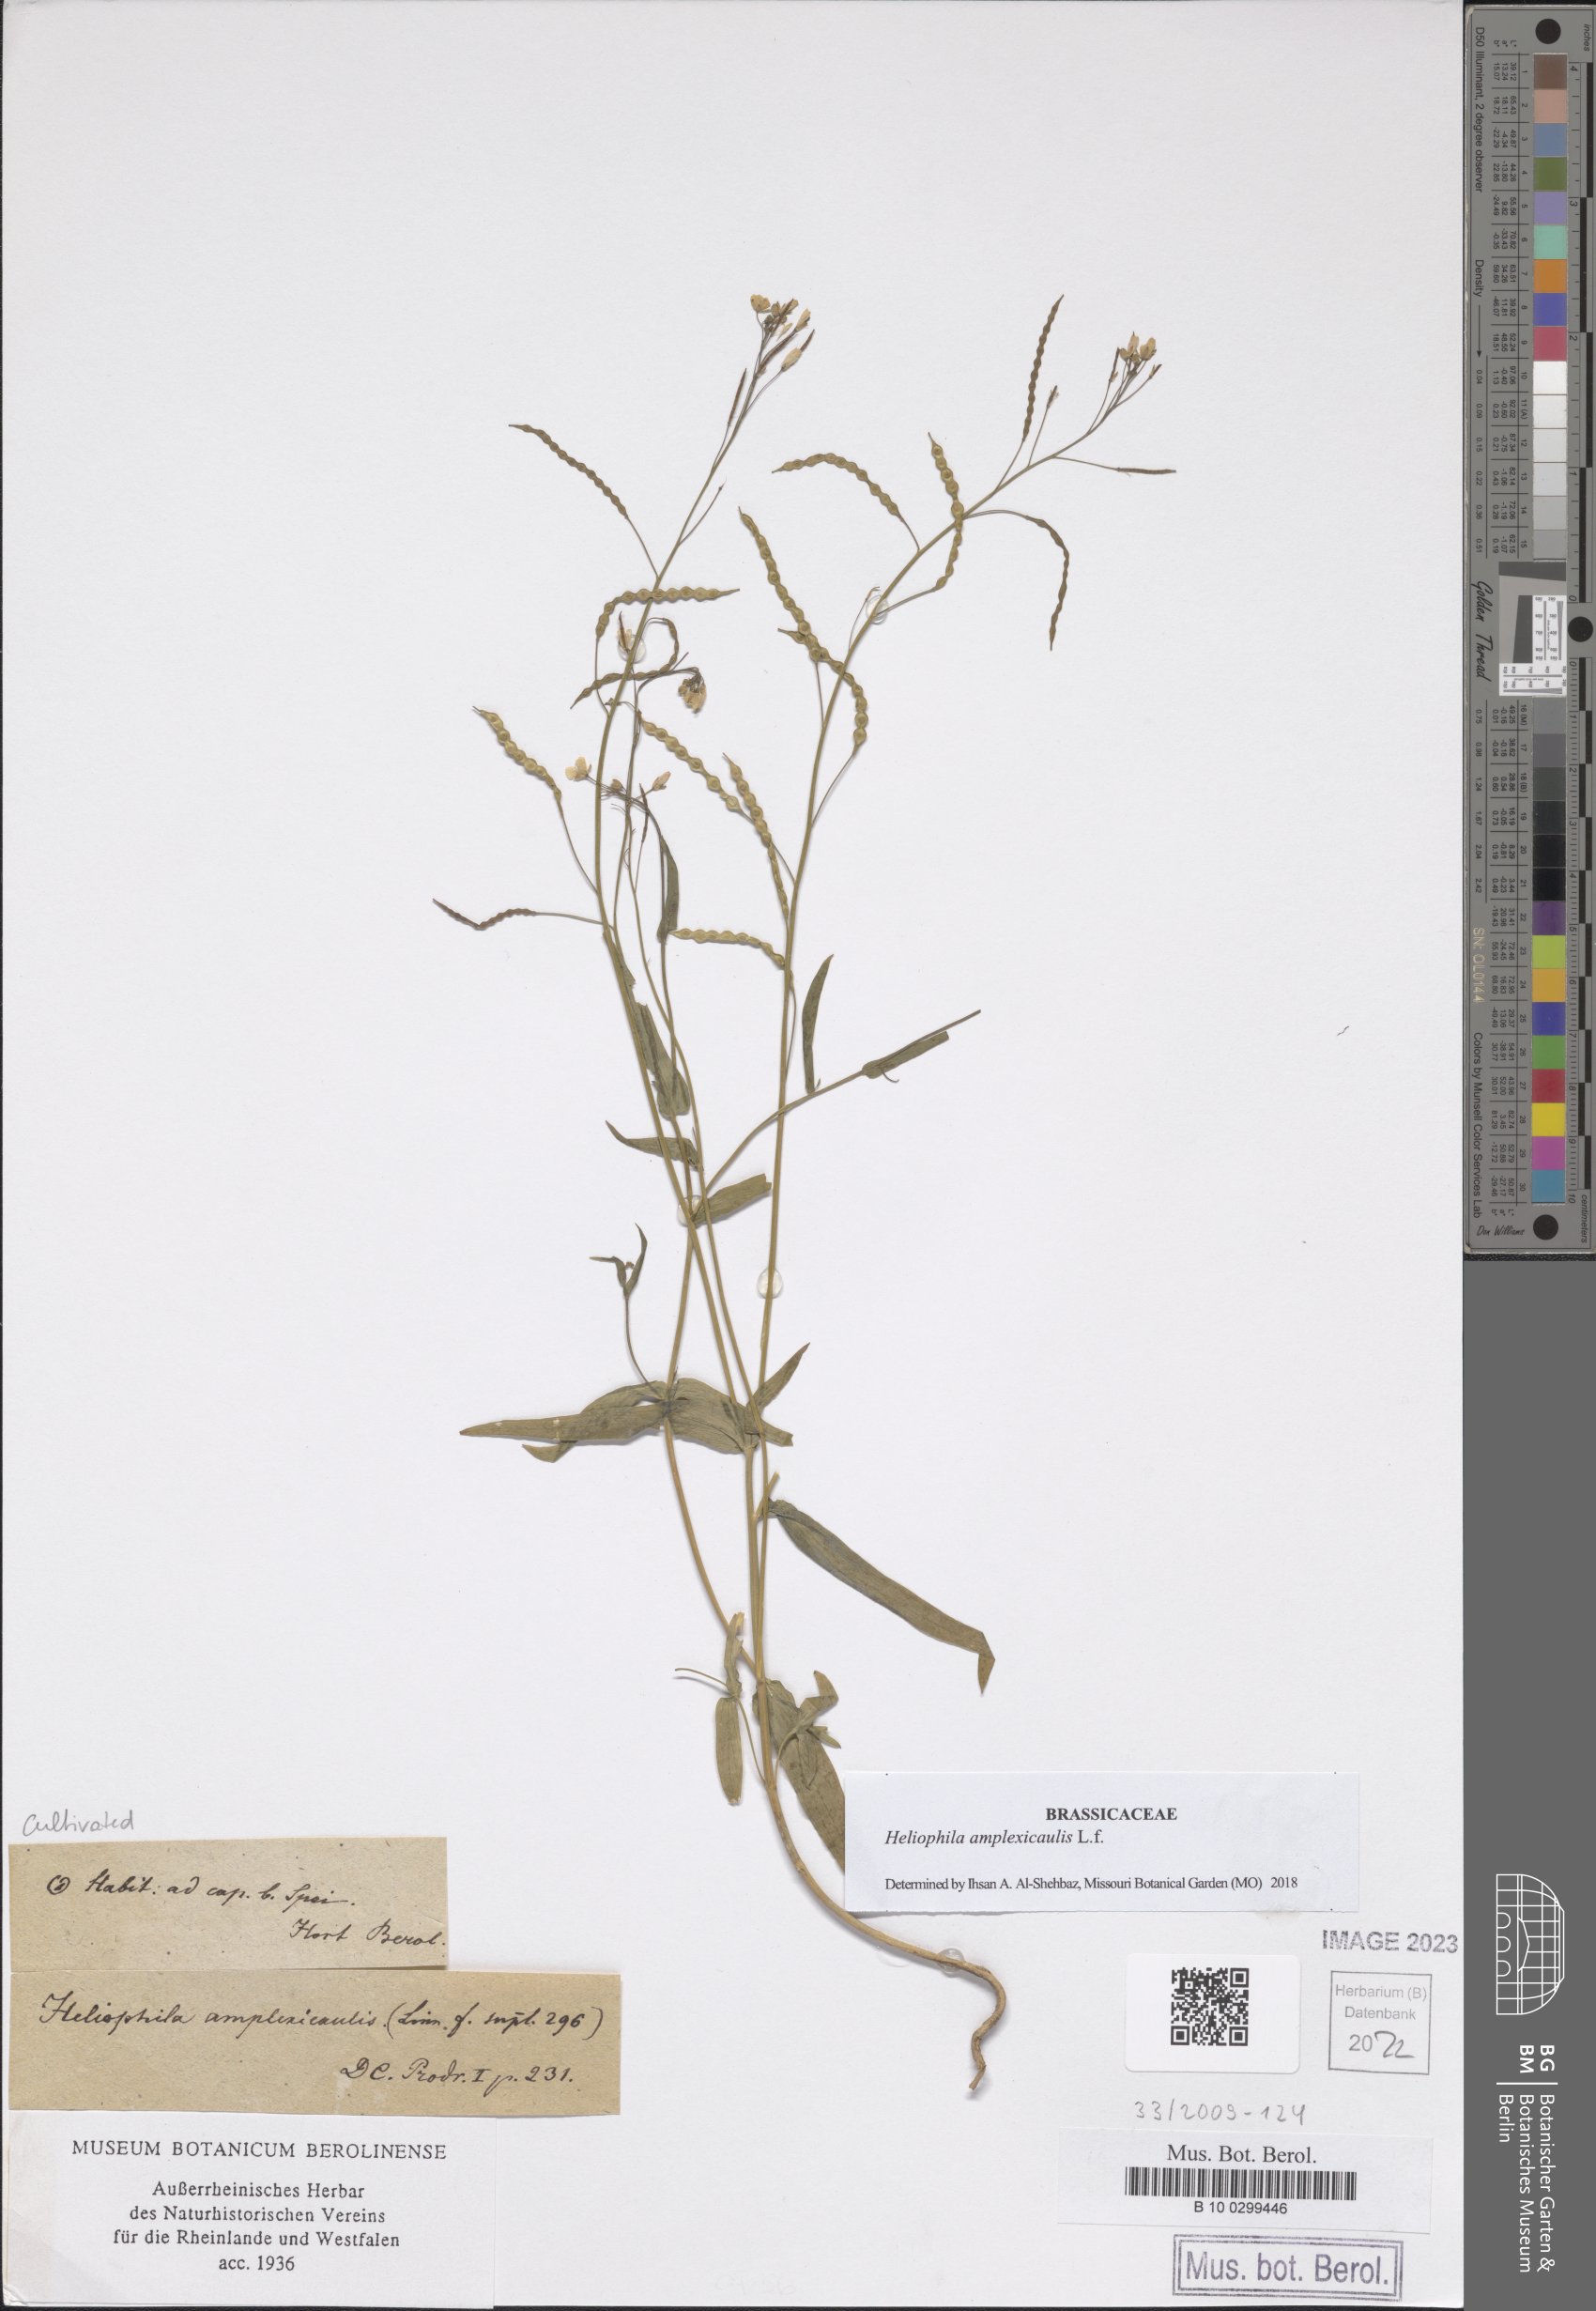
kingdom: Plantae
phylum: Tracheophyta
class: Magnoliopsida
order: Brassicales
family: Brassicaceae
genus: Heliophila
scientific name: Heliophila amplexicaulis
